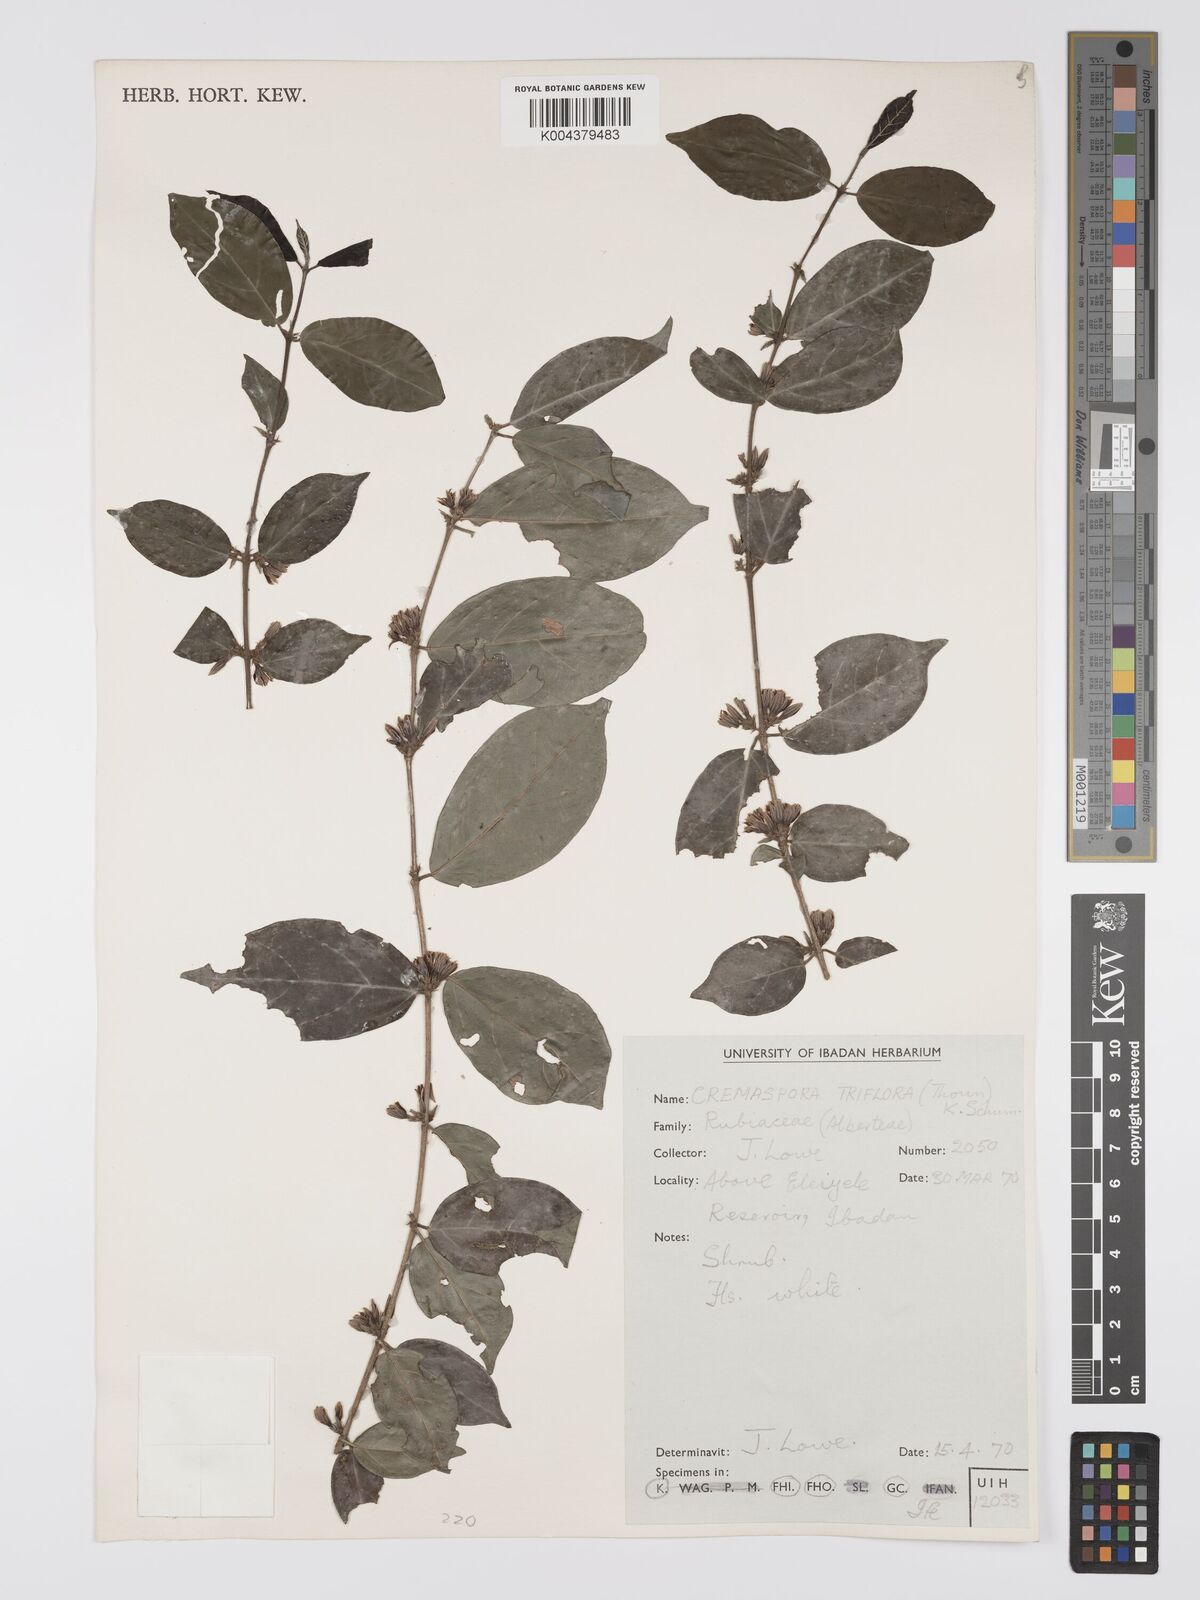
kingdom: Plantae
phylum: Tracheophyta
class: Magnoliopsida
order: Gentianales
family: Rubiaceae
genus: Cremaspora
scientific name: Cremaspora triflora
